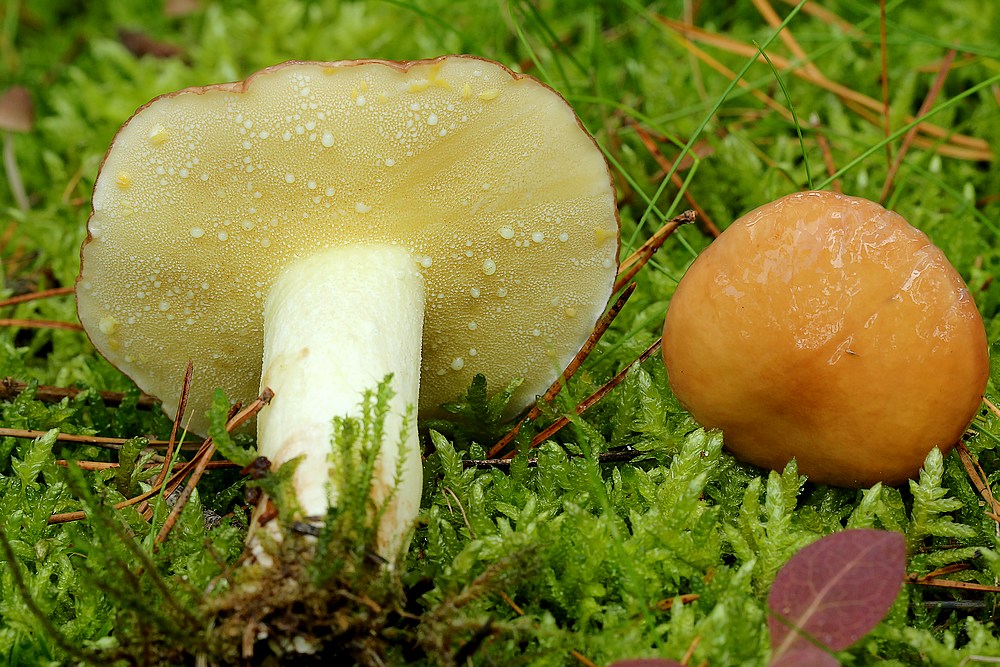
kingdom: Fungi
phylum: Basidiomycota
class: Agaricomycetes
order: Boletales
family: Suillaceae
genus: Suillus
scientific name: Suillus granulatus
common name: kornet slimrørhat
